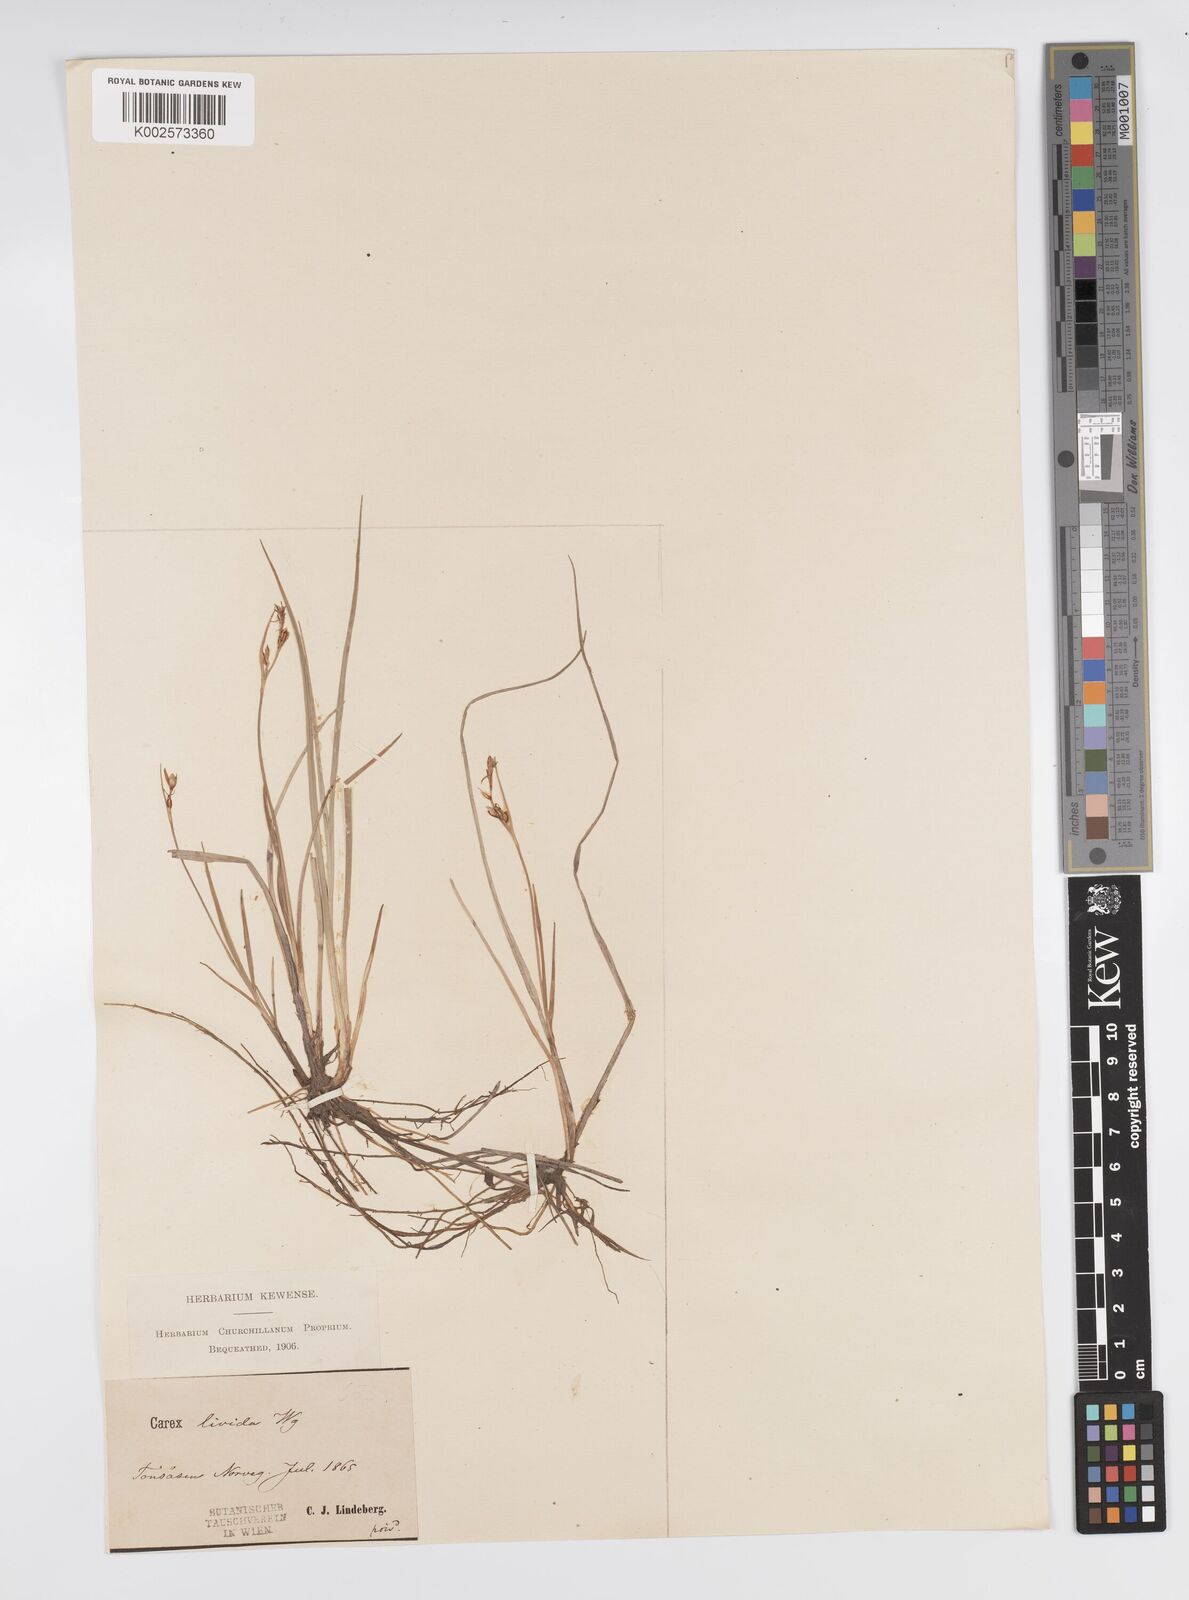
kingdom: Plantae
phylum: Tracheophyta
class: Liliopsida
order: Poales
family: Cyperaceae
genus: Carex
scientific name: Carex livida
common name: Livid sedge
